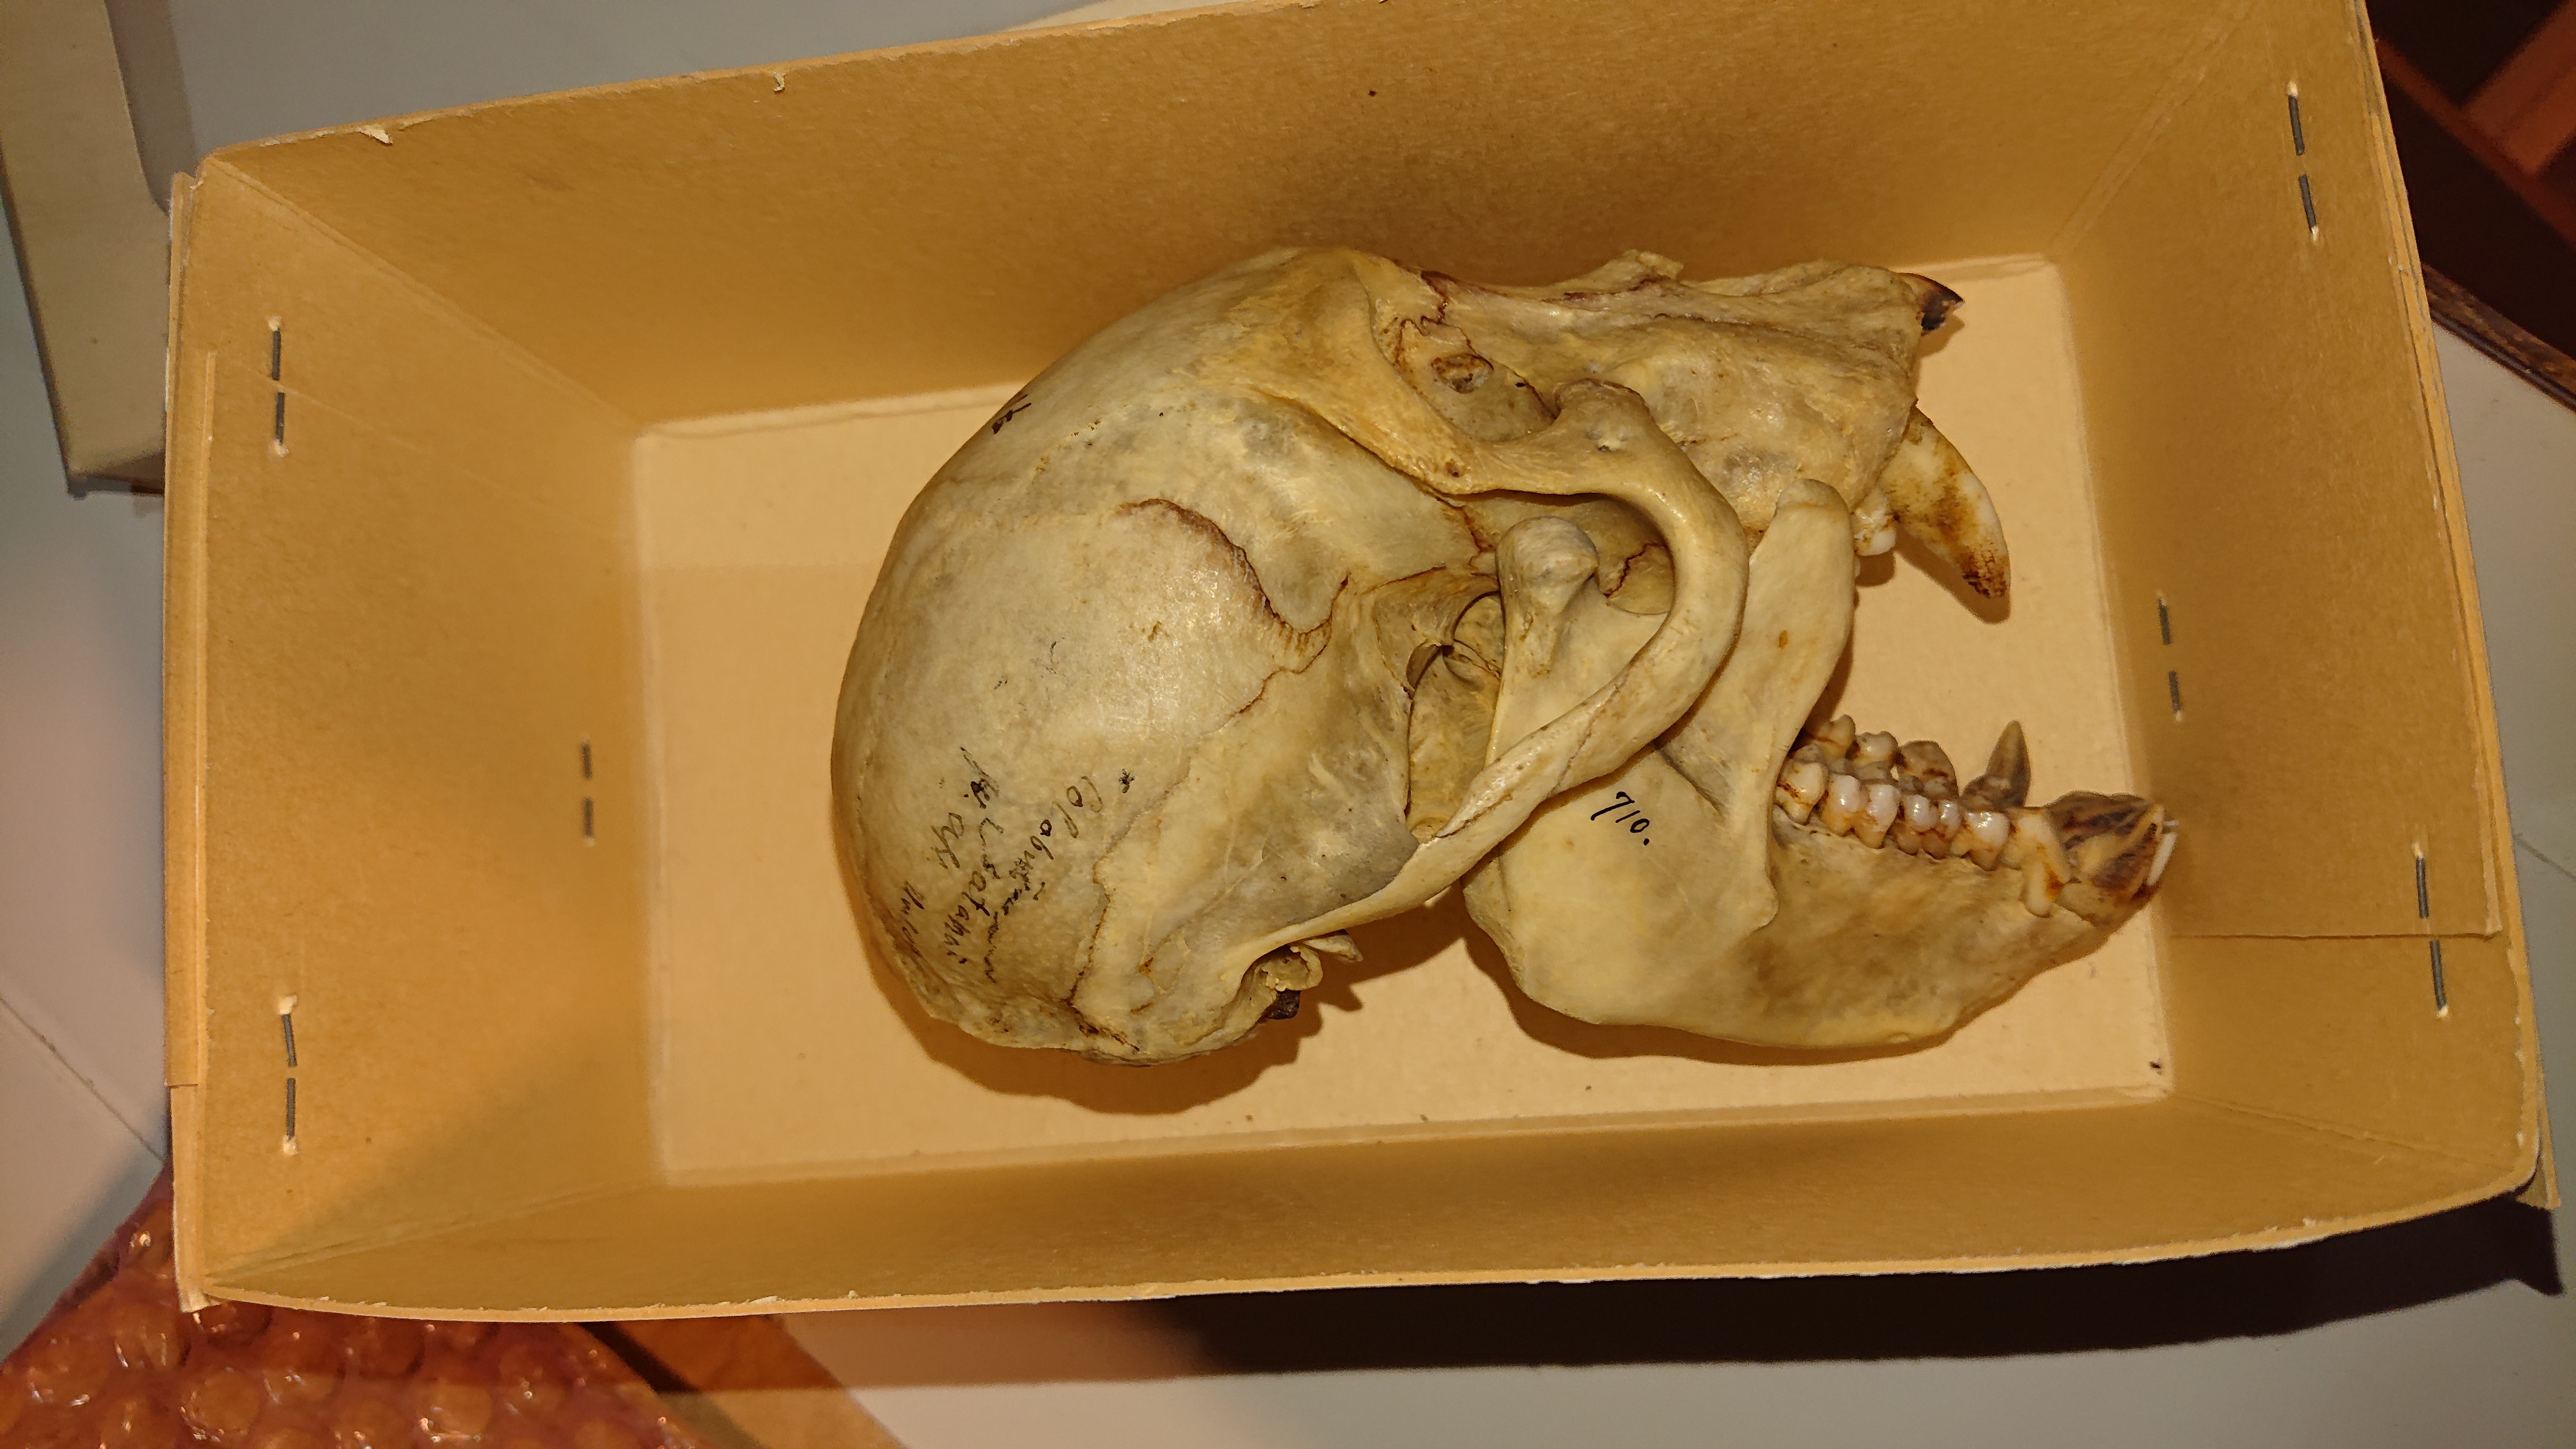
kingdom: Animalia
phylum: Chordata
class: Mammalia
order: Primates
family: Cercopithecidae
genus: Colobus
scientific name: Colobus satanas
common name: Black colobus
